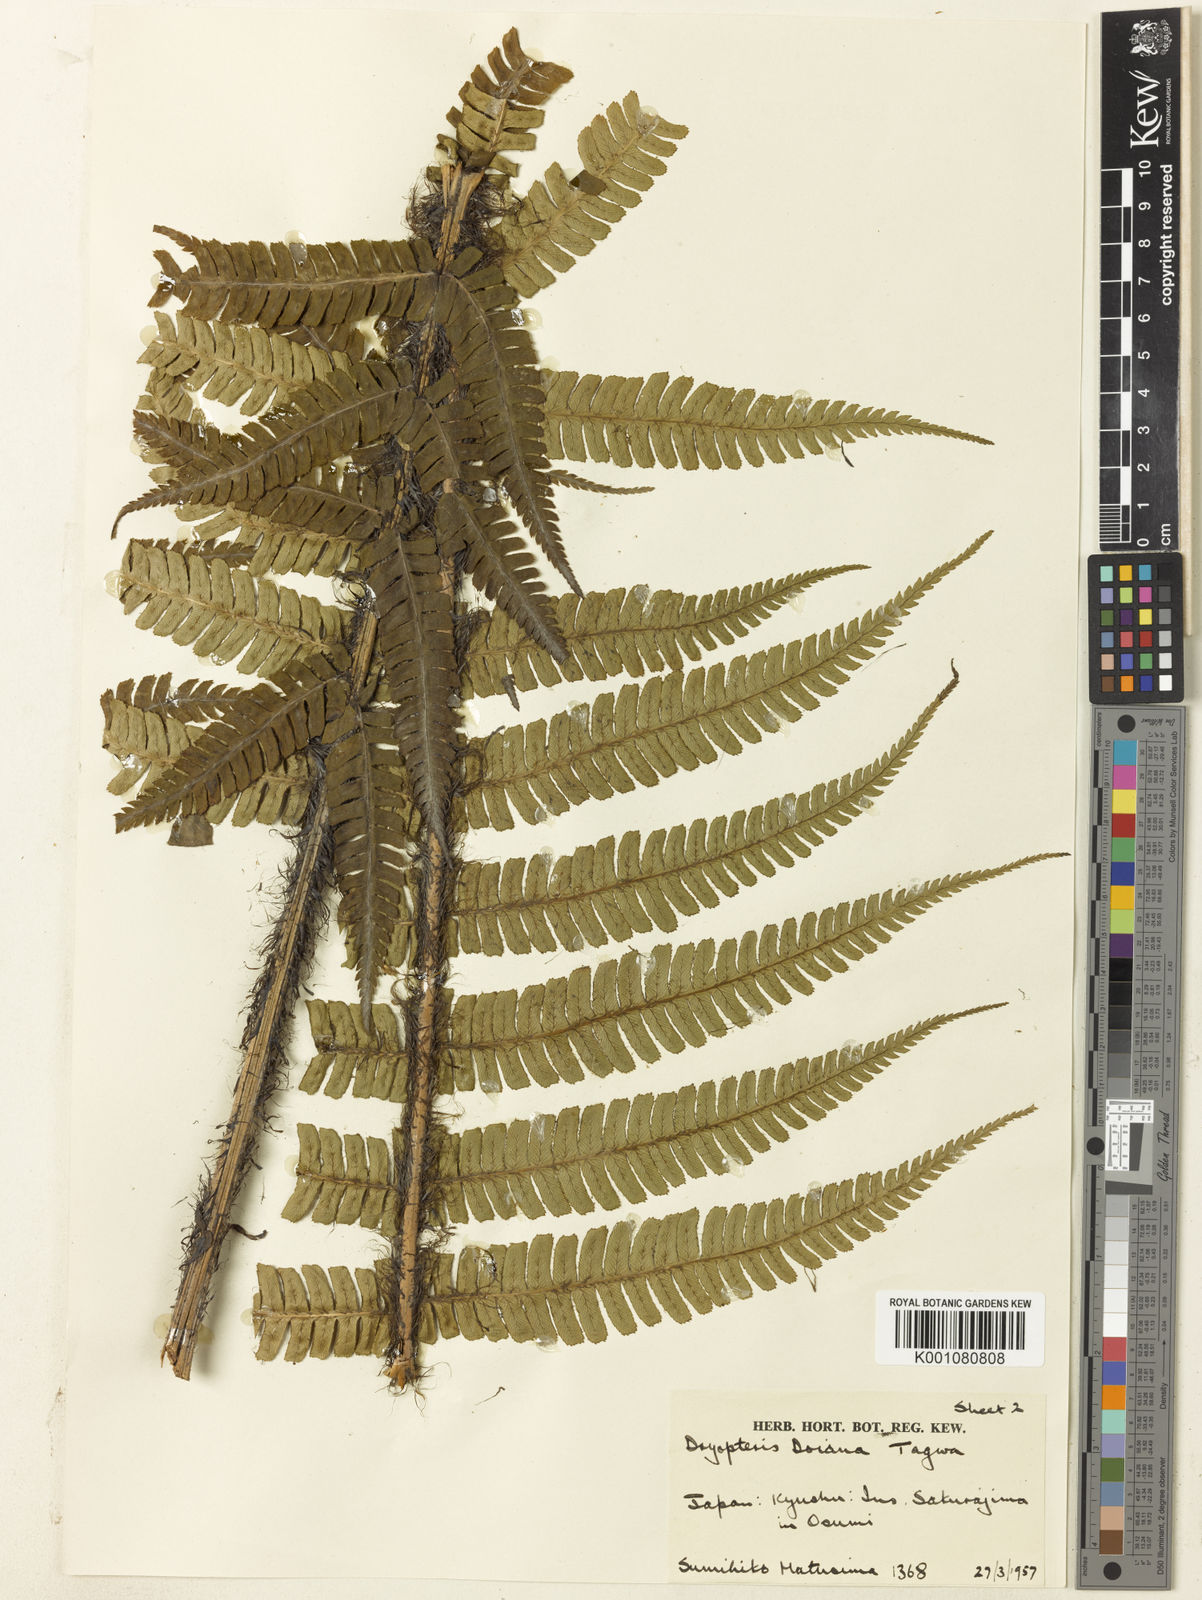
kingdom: Plantae
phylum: Tracheophyta
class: Polypodiopsida
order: Polypodiales
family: Dryopteridaceae
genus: Dryopteris
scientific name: Dryopteris wallichiana
